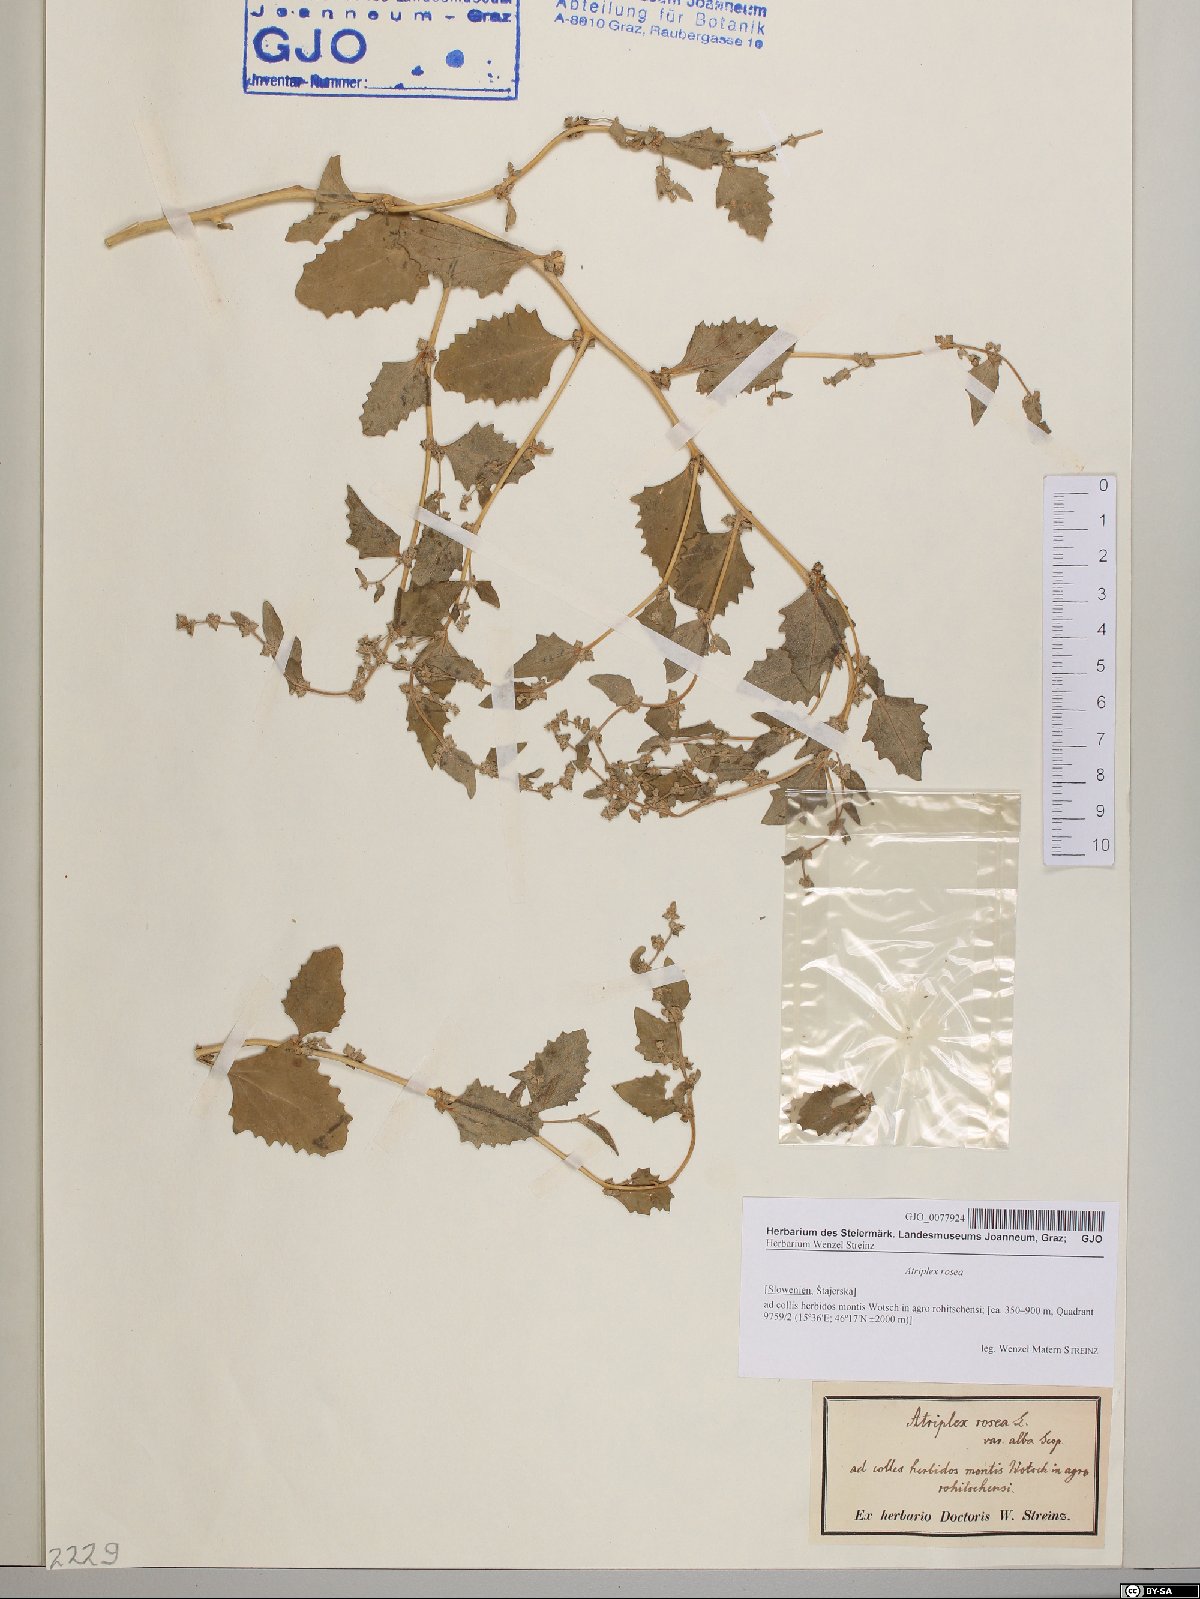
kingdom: Plantae
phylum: Tracheophyta
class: Magnoliopsida
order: Caryophyllales
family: Amaranthaceae
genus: Atriplex
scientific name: Atriplex rosea
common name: Tumbling saltweed
